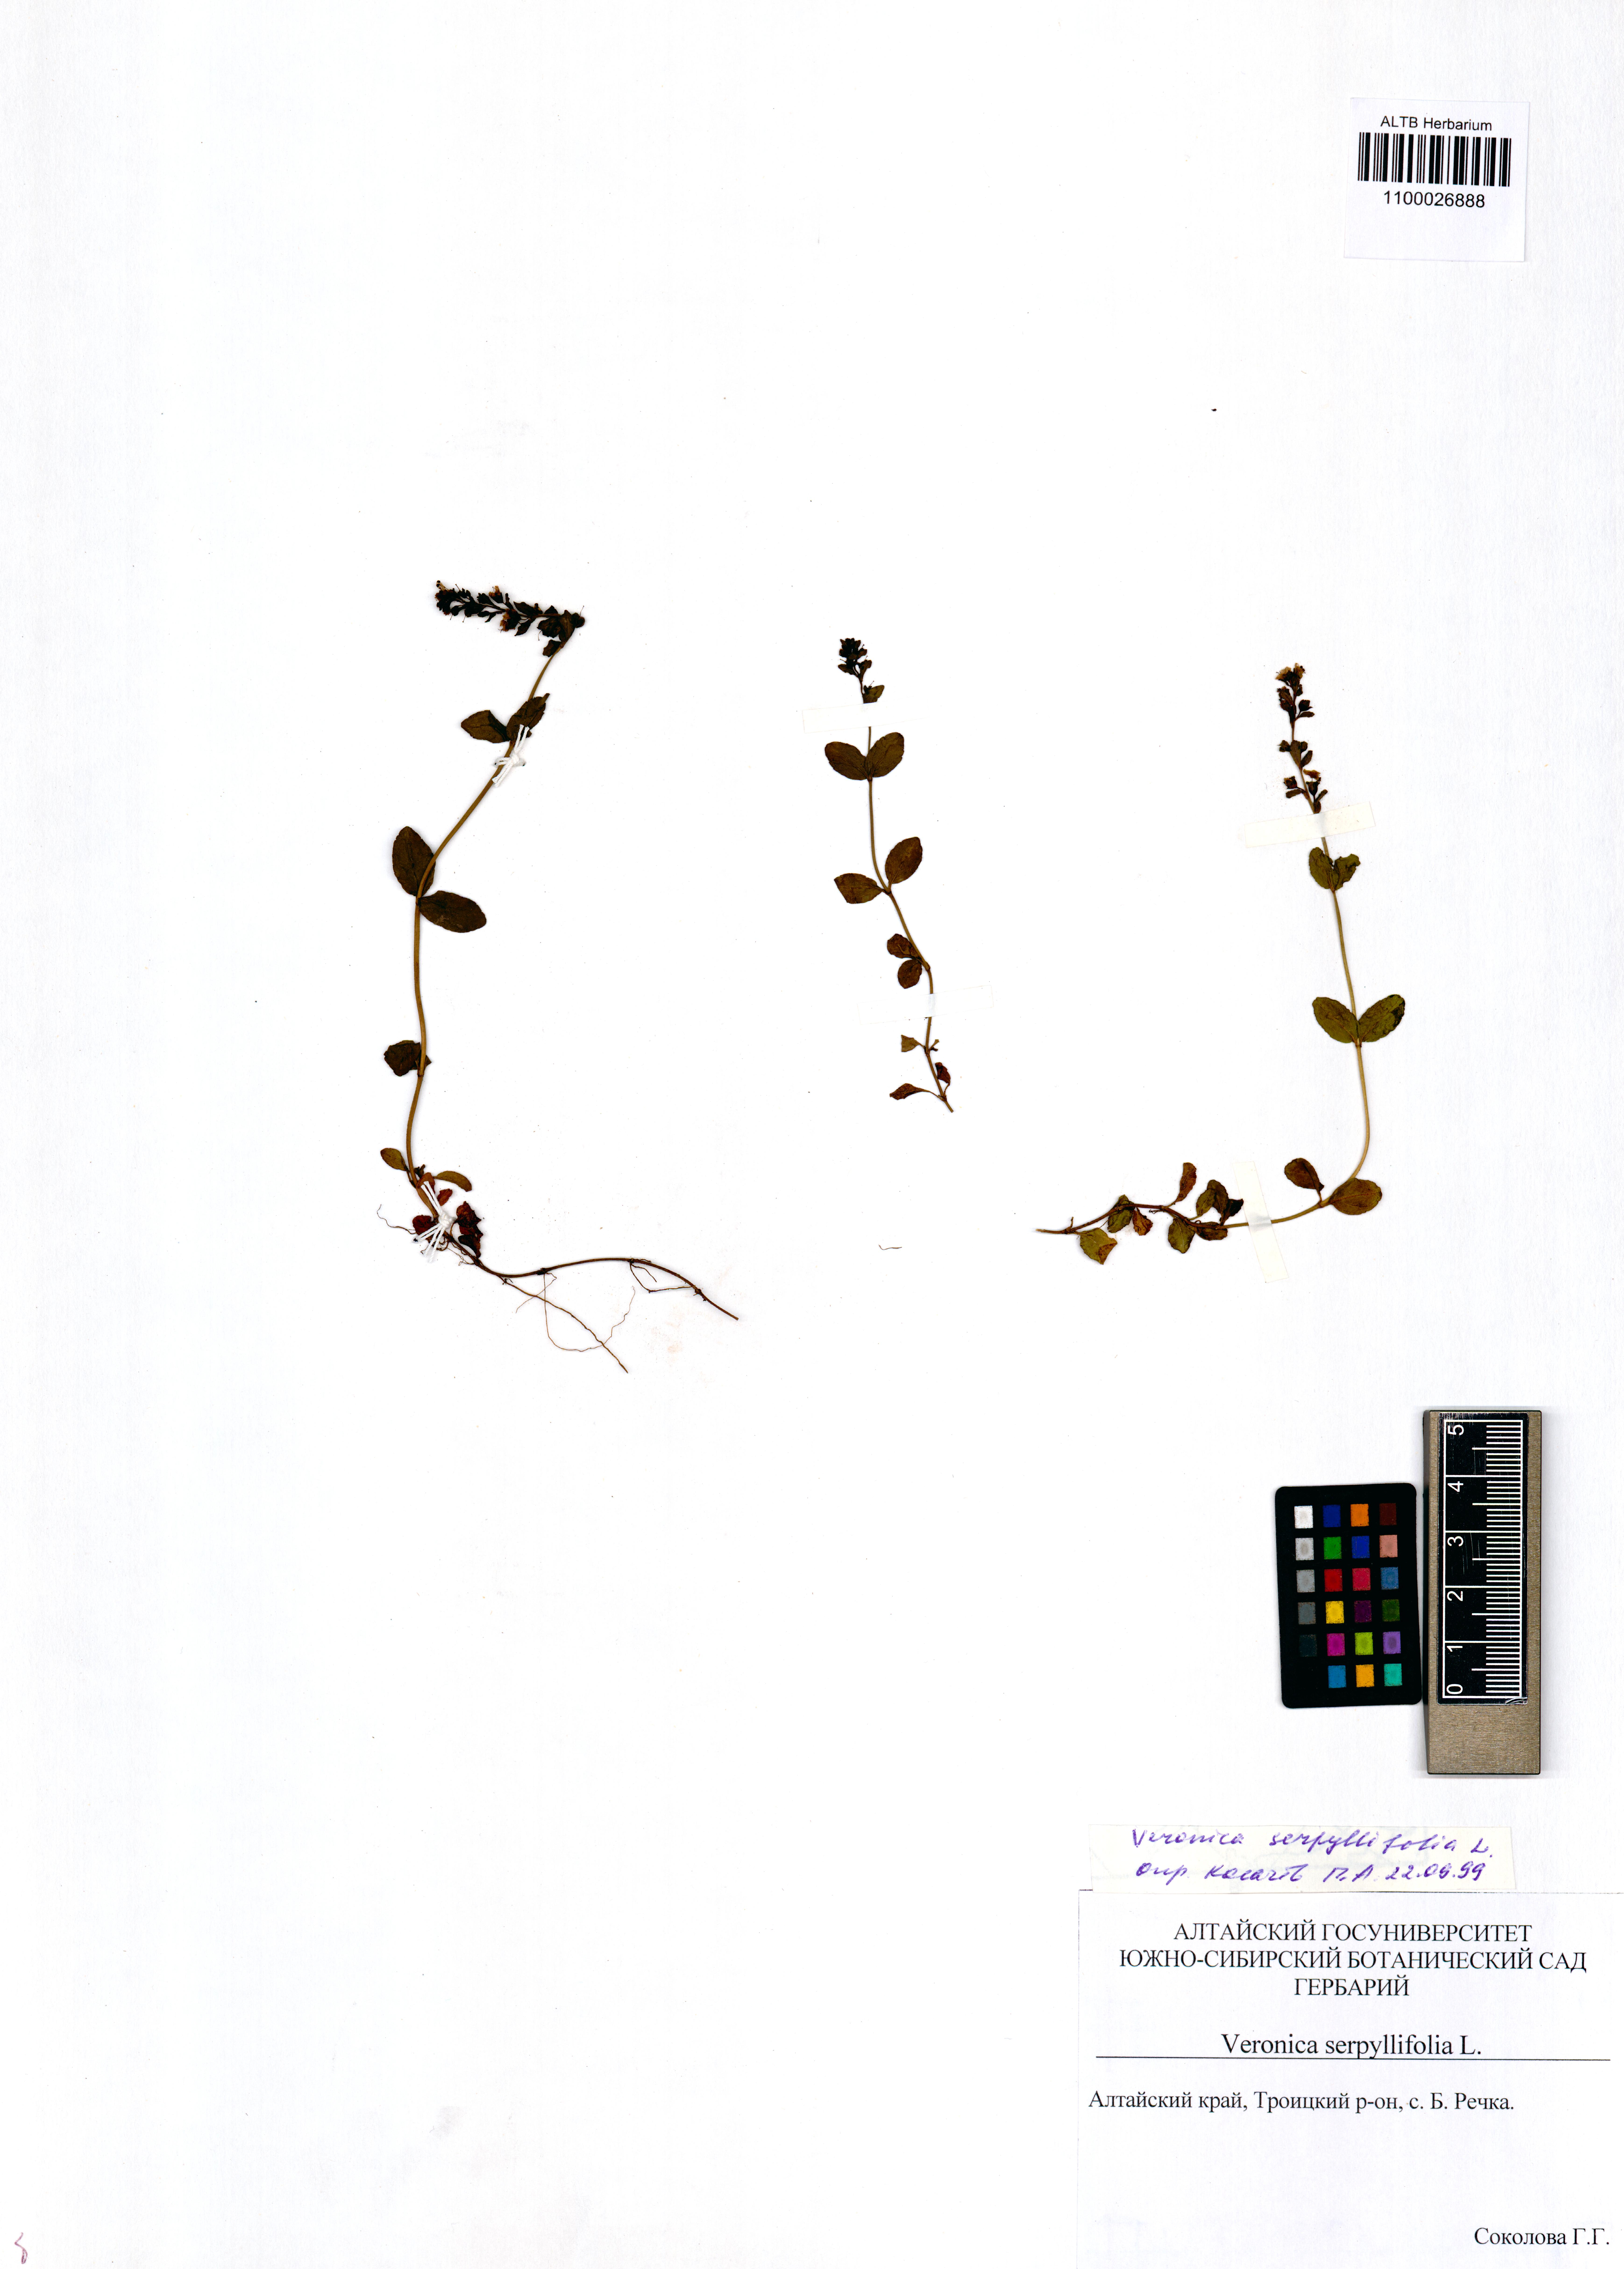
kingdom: Plantae
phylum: Tracheophyta
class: Magnoliopsida
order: Lamiales
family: Plantaginaceae
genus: Veronica
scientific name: Veronica serpyllifolia
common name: Thyme-leaved speedwell
